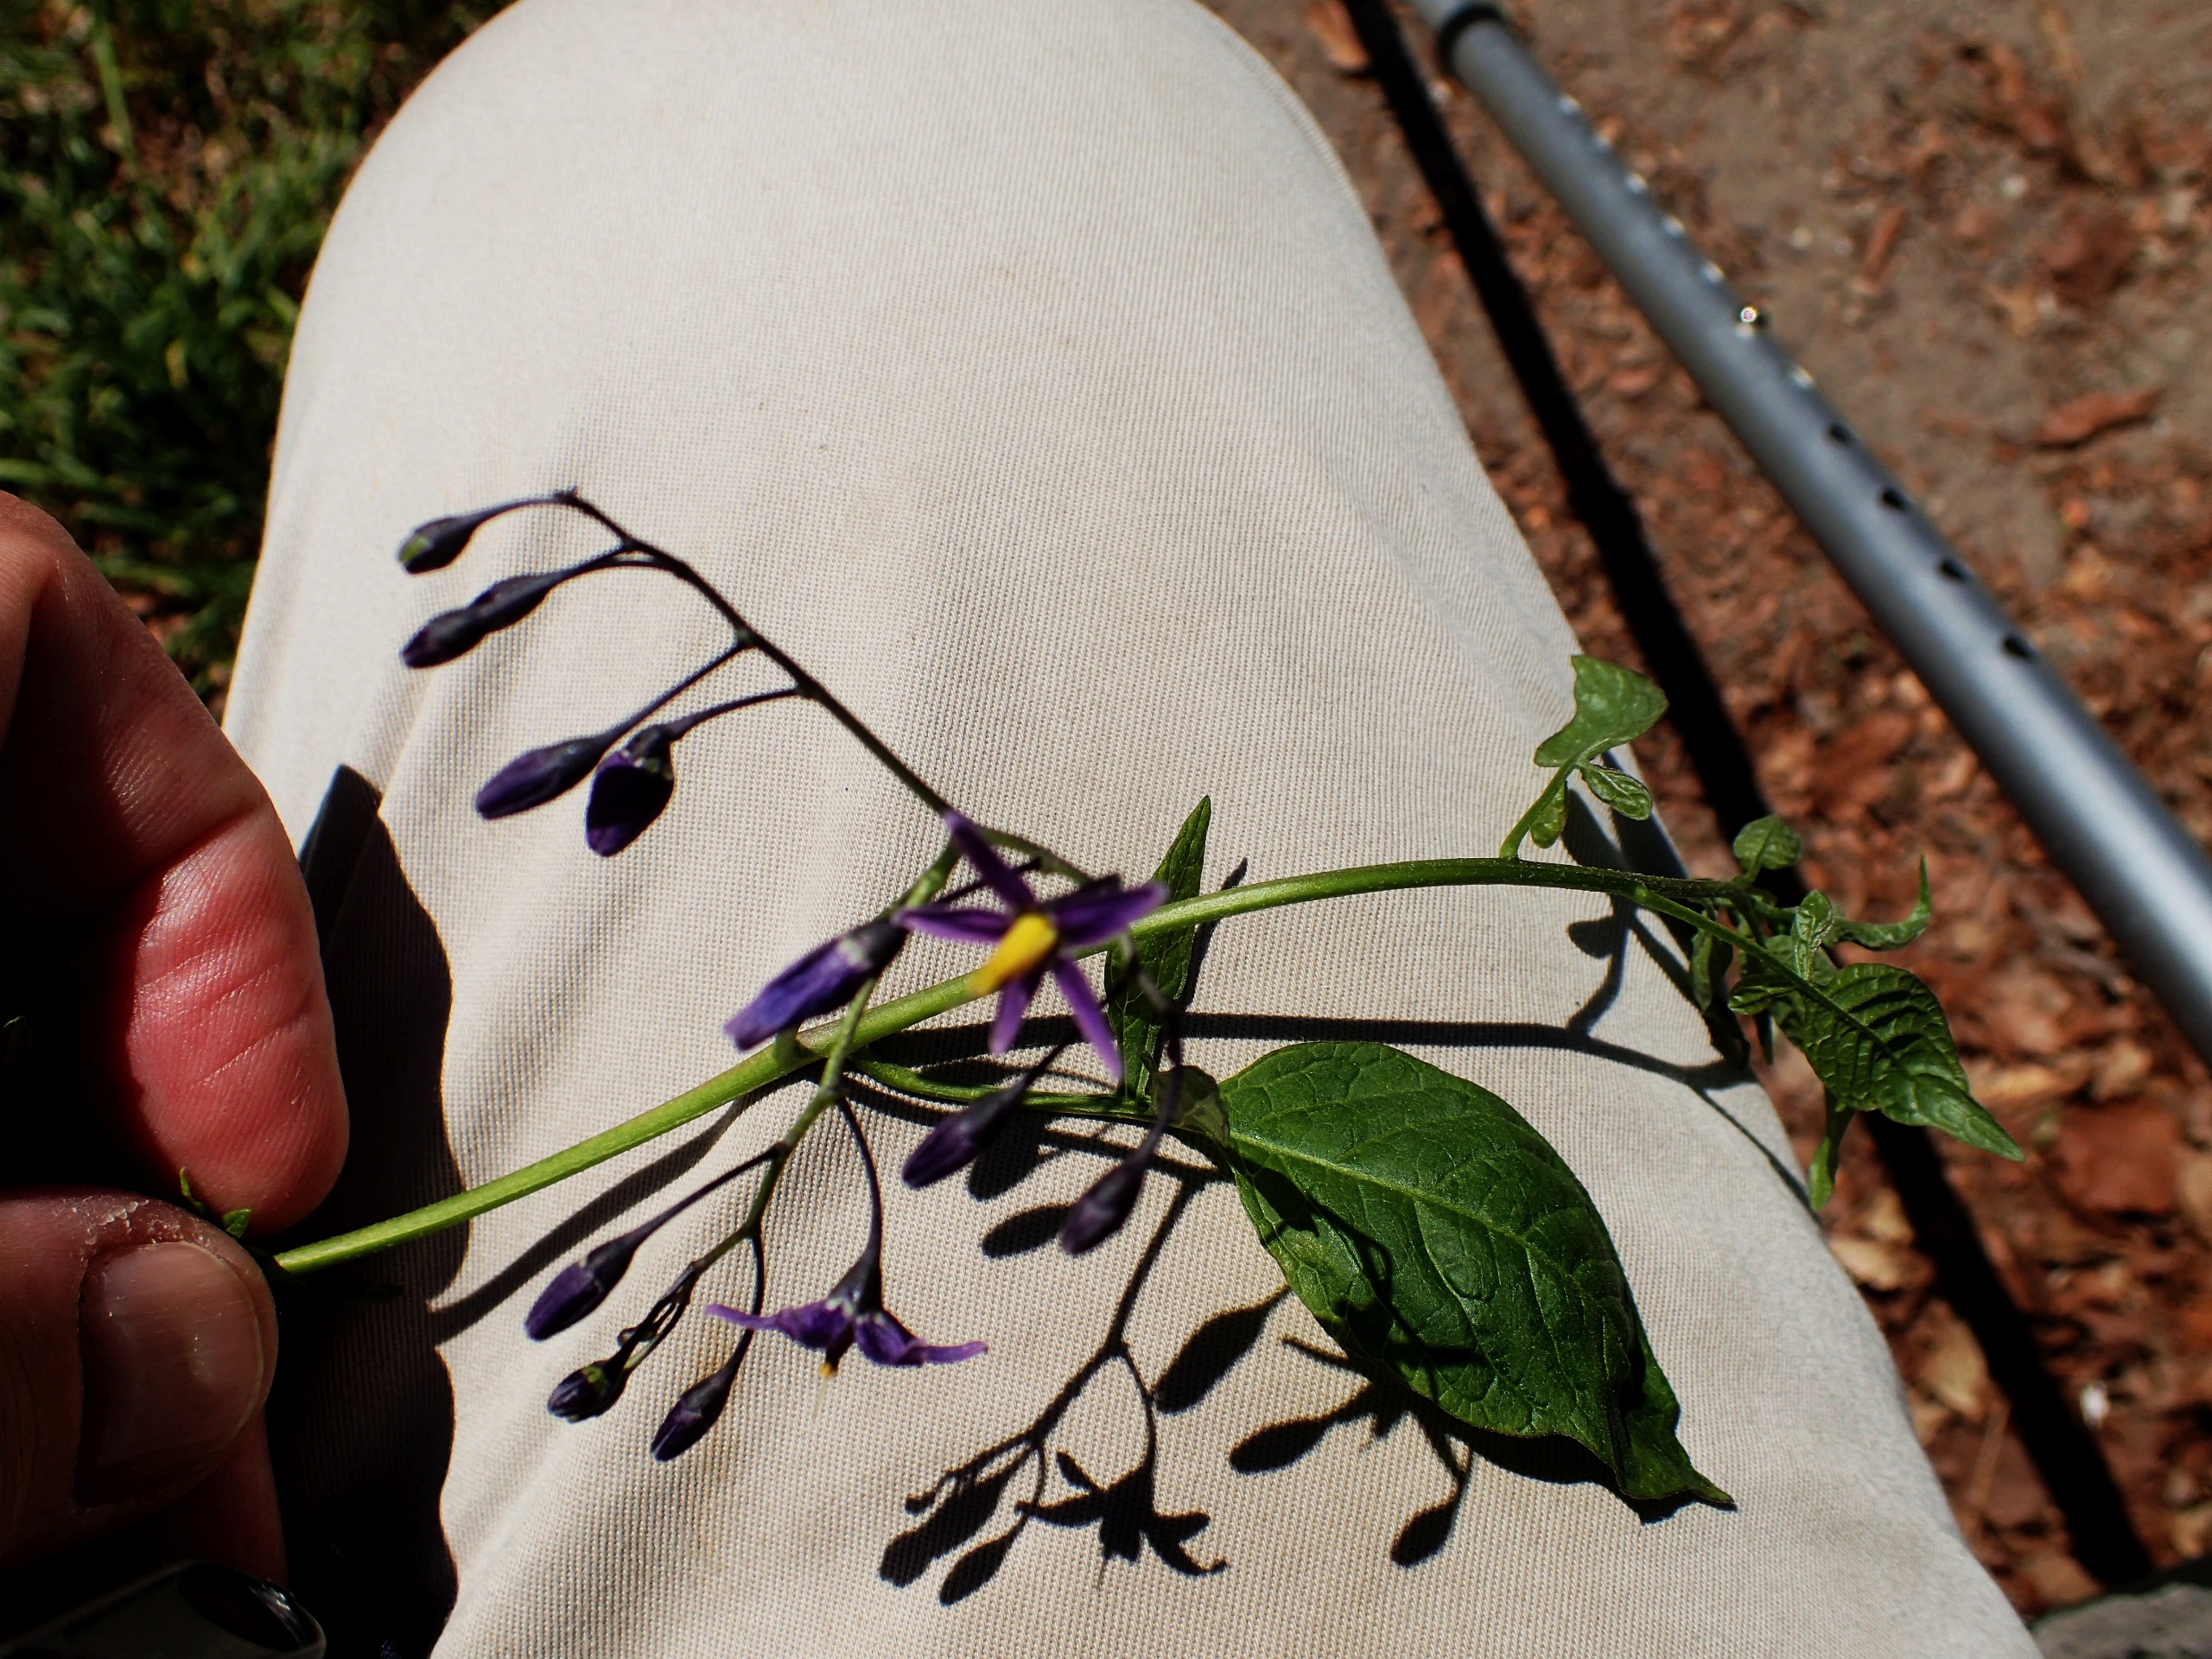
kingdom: Plantae
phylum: Tracheophyta
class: Magnoliopsida
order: Solanales
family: Solanaceae
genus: Solanum
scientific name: Solanum dulcamara
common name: Bittersød natskygge
